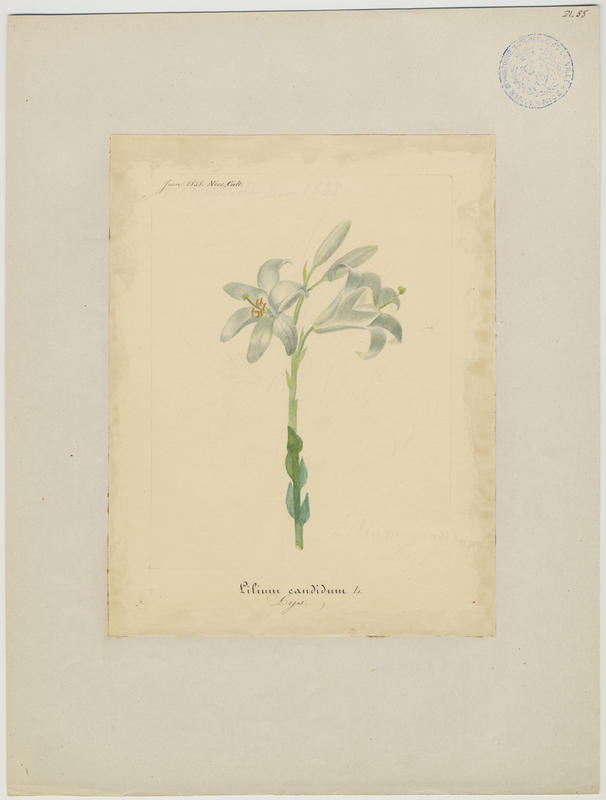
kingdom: Plantae
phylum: Tracheophyta
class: Liliopsida
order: Liliales
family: Liliaceae
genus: Lilium
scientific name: Lilium candidum
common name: Madonna lily
